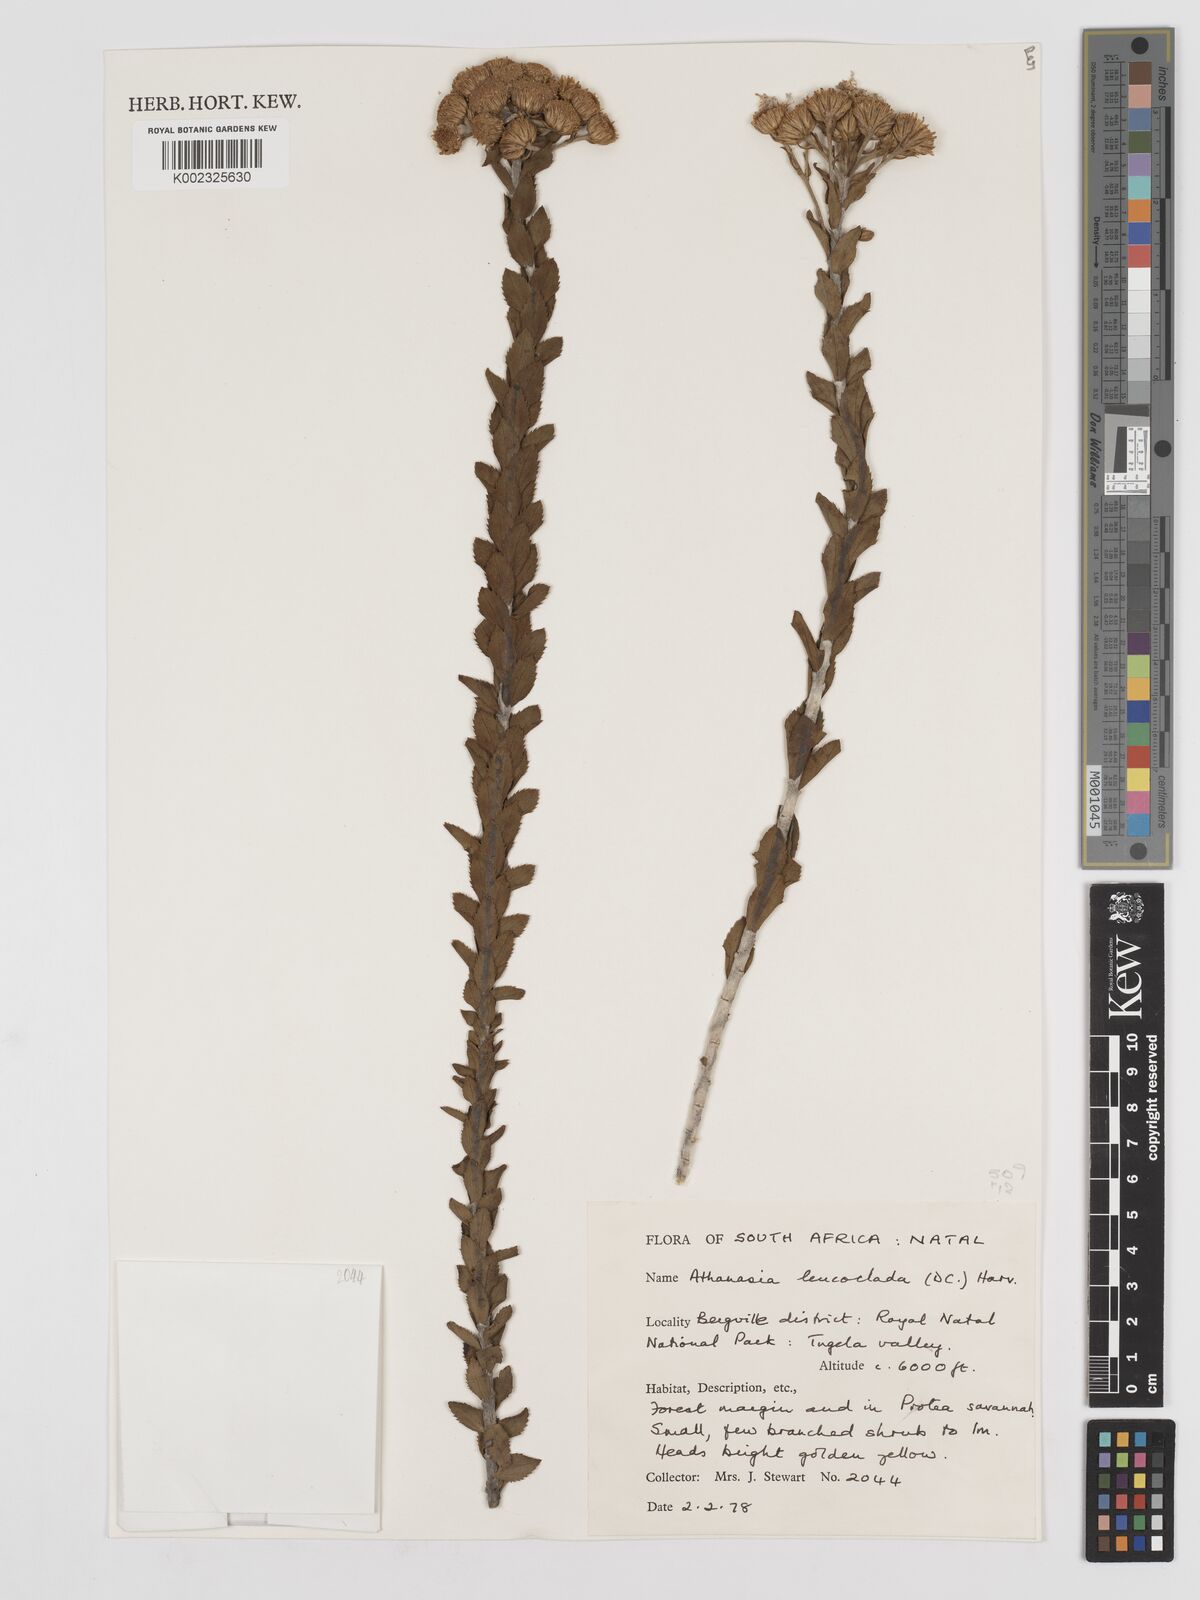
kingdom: Plantae
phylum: Tracheophyta
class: Magnoliopsida
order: Asterales
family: Asteraceae
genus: Inulanthera
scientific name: Inulanthera leucoclada
